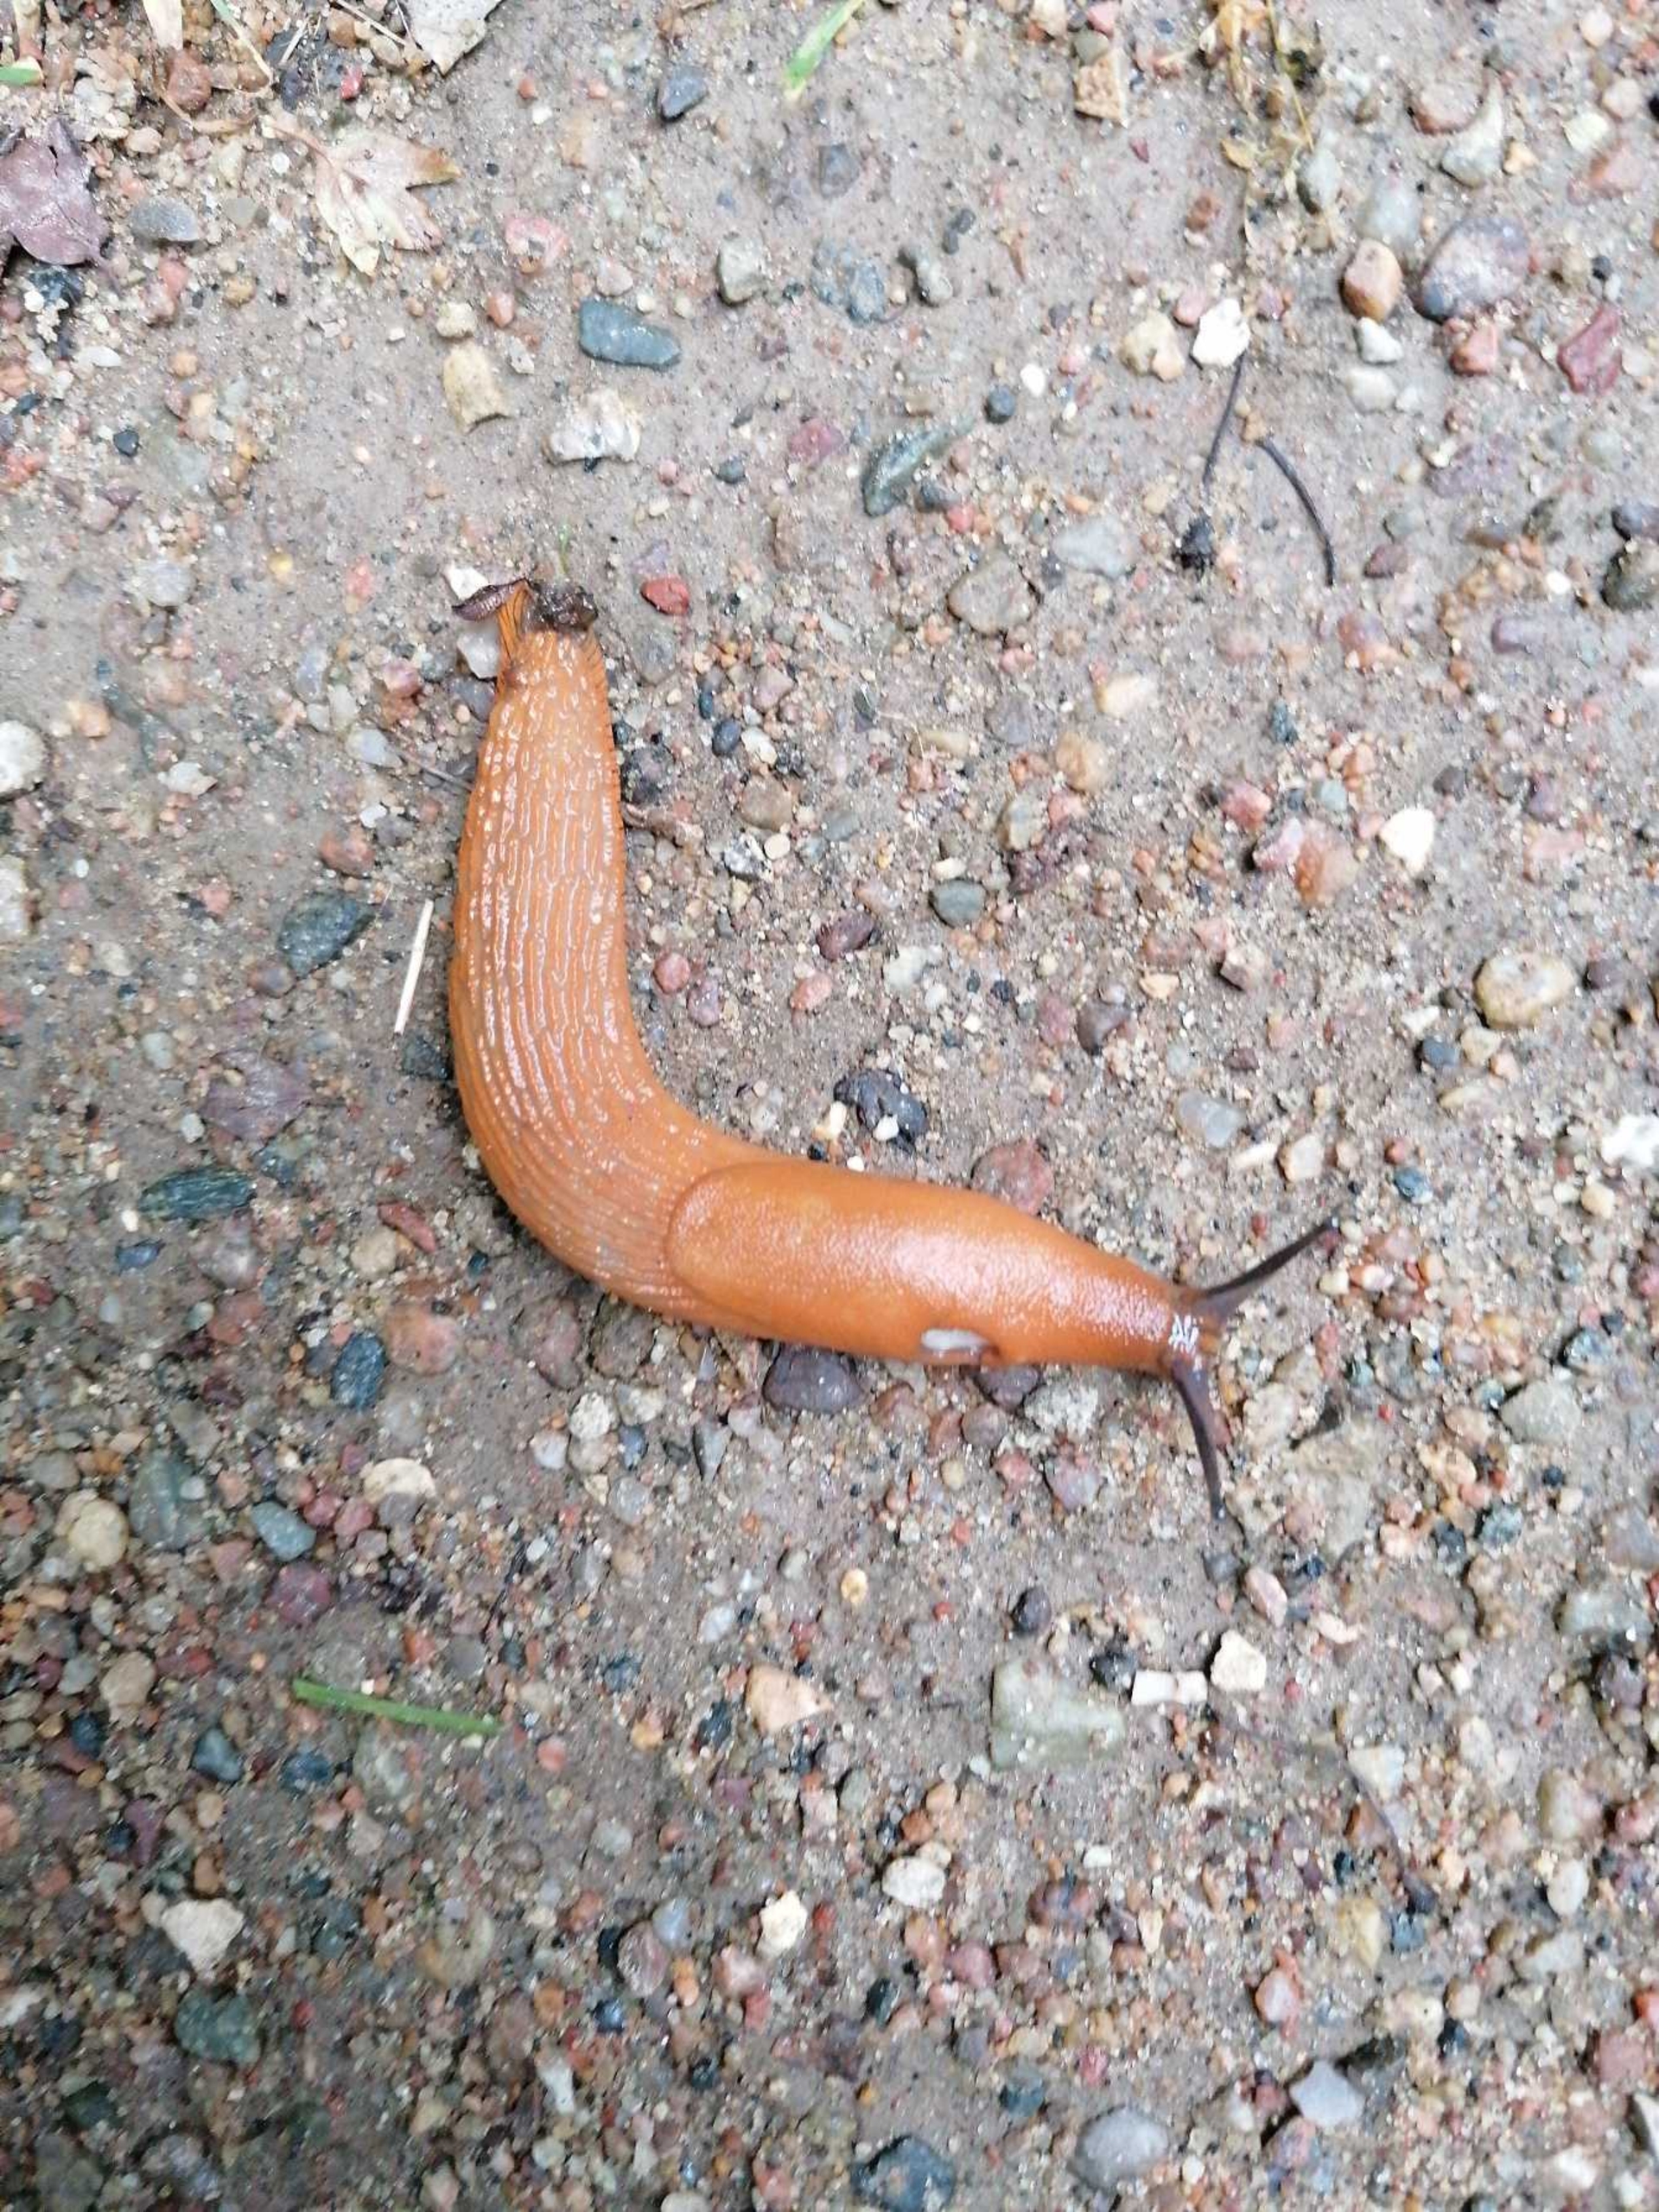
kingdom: Animalia
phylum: Mollusca
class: Gastropoda
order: Stylommatophora
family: Arionidae
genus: Arion
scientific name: Arion vulgaris
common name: Iberisk skovsnegl
